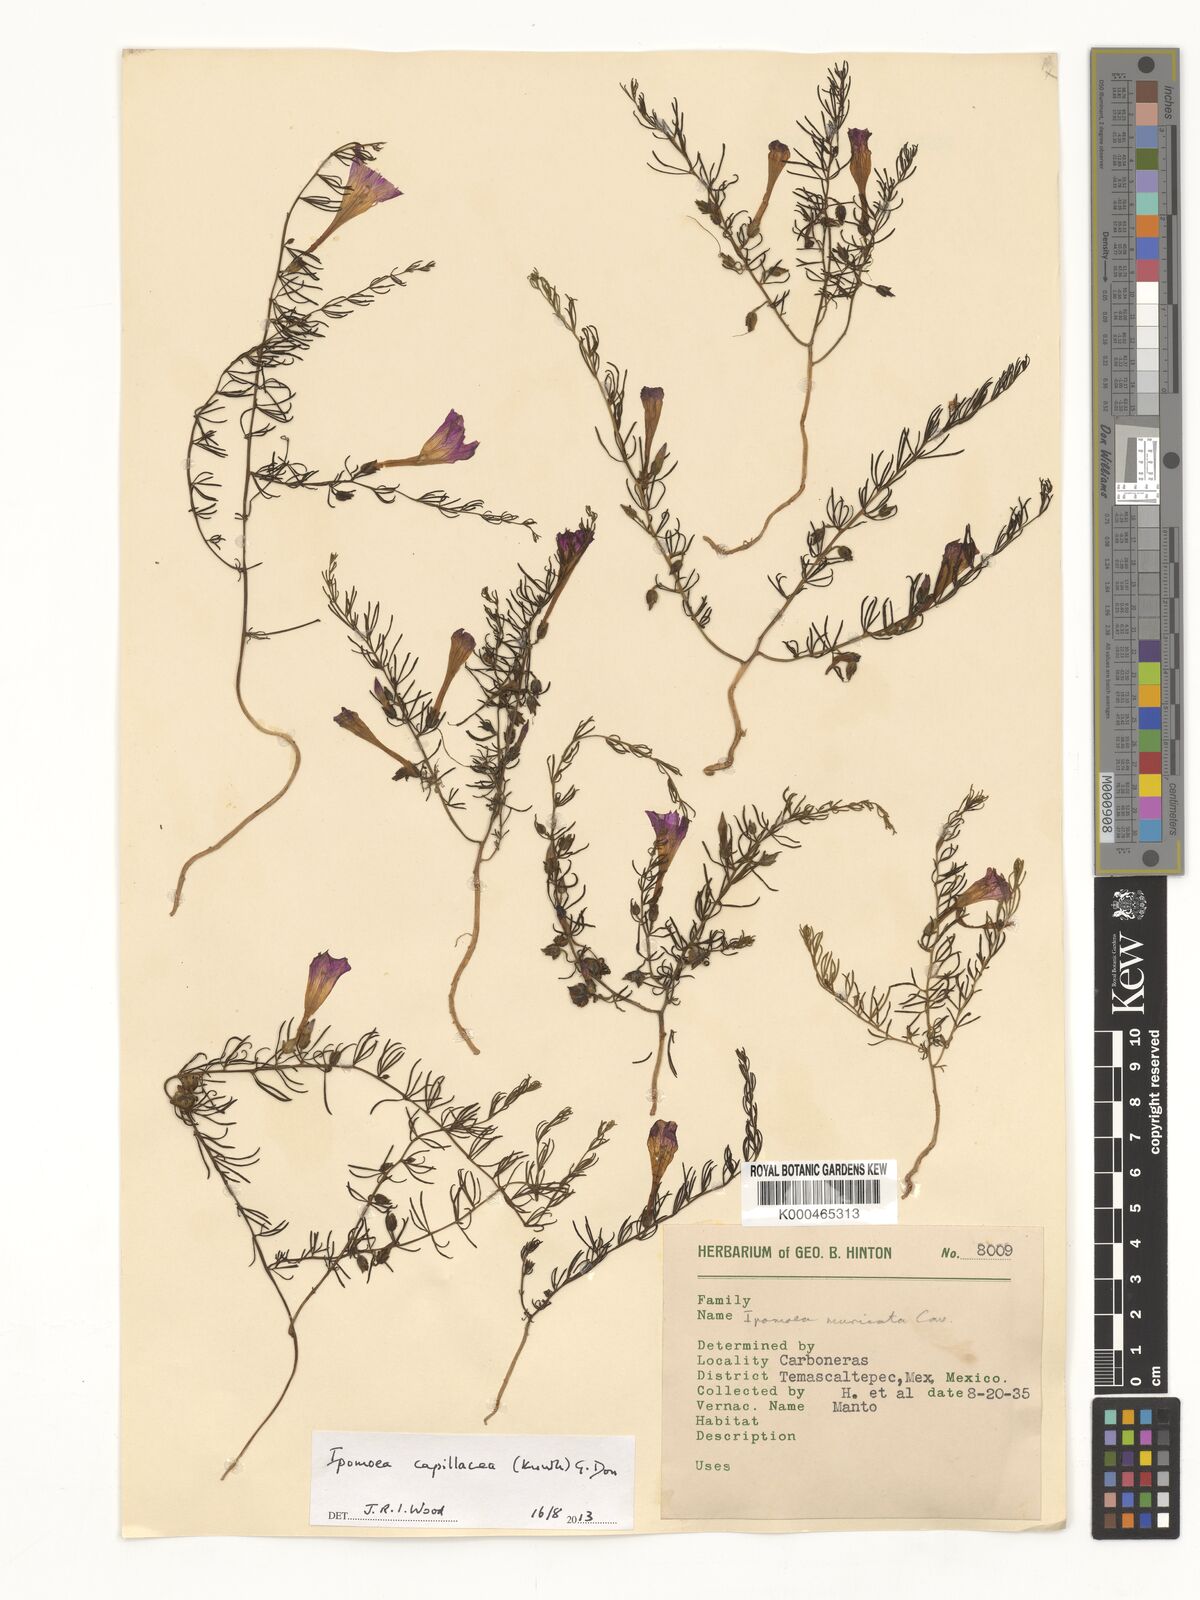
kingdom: Plantae
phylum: Tracheophyta
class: Magnoliopsida
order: Solanales
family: Convolvulaceae
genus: Ipomoea
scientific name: Ipomoea muricata
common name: Lilac-bell
